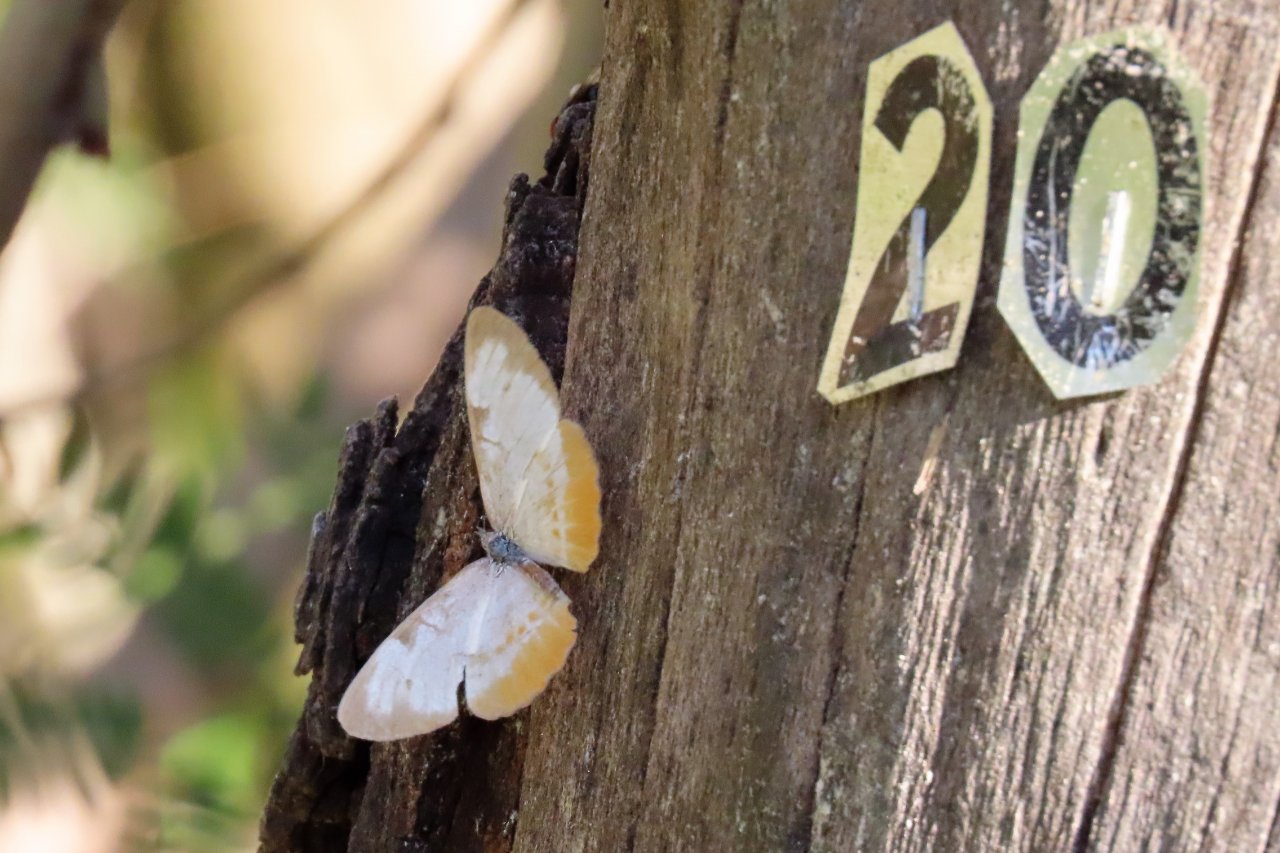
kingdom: Animalia
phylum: Arthropoda
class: Insecta
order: Lepidoptera
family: Nymphalidae
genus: Mestra
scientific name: Mestra amymone
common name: Common Mestra
